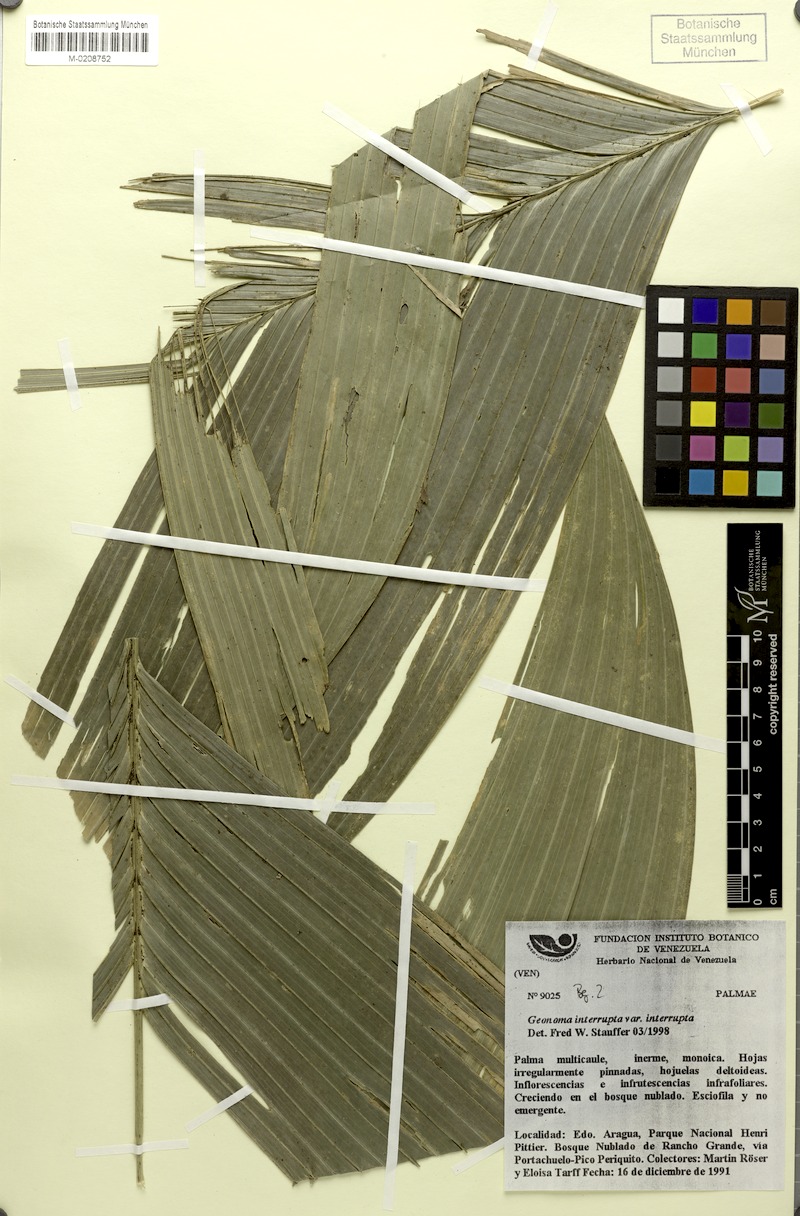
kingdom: Plantae
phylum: Tracheophyta
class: Liliopsida
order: Arecales
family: Arecaceae
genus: Geonoma
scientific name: Geonoma interrupta
